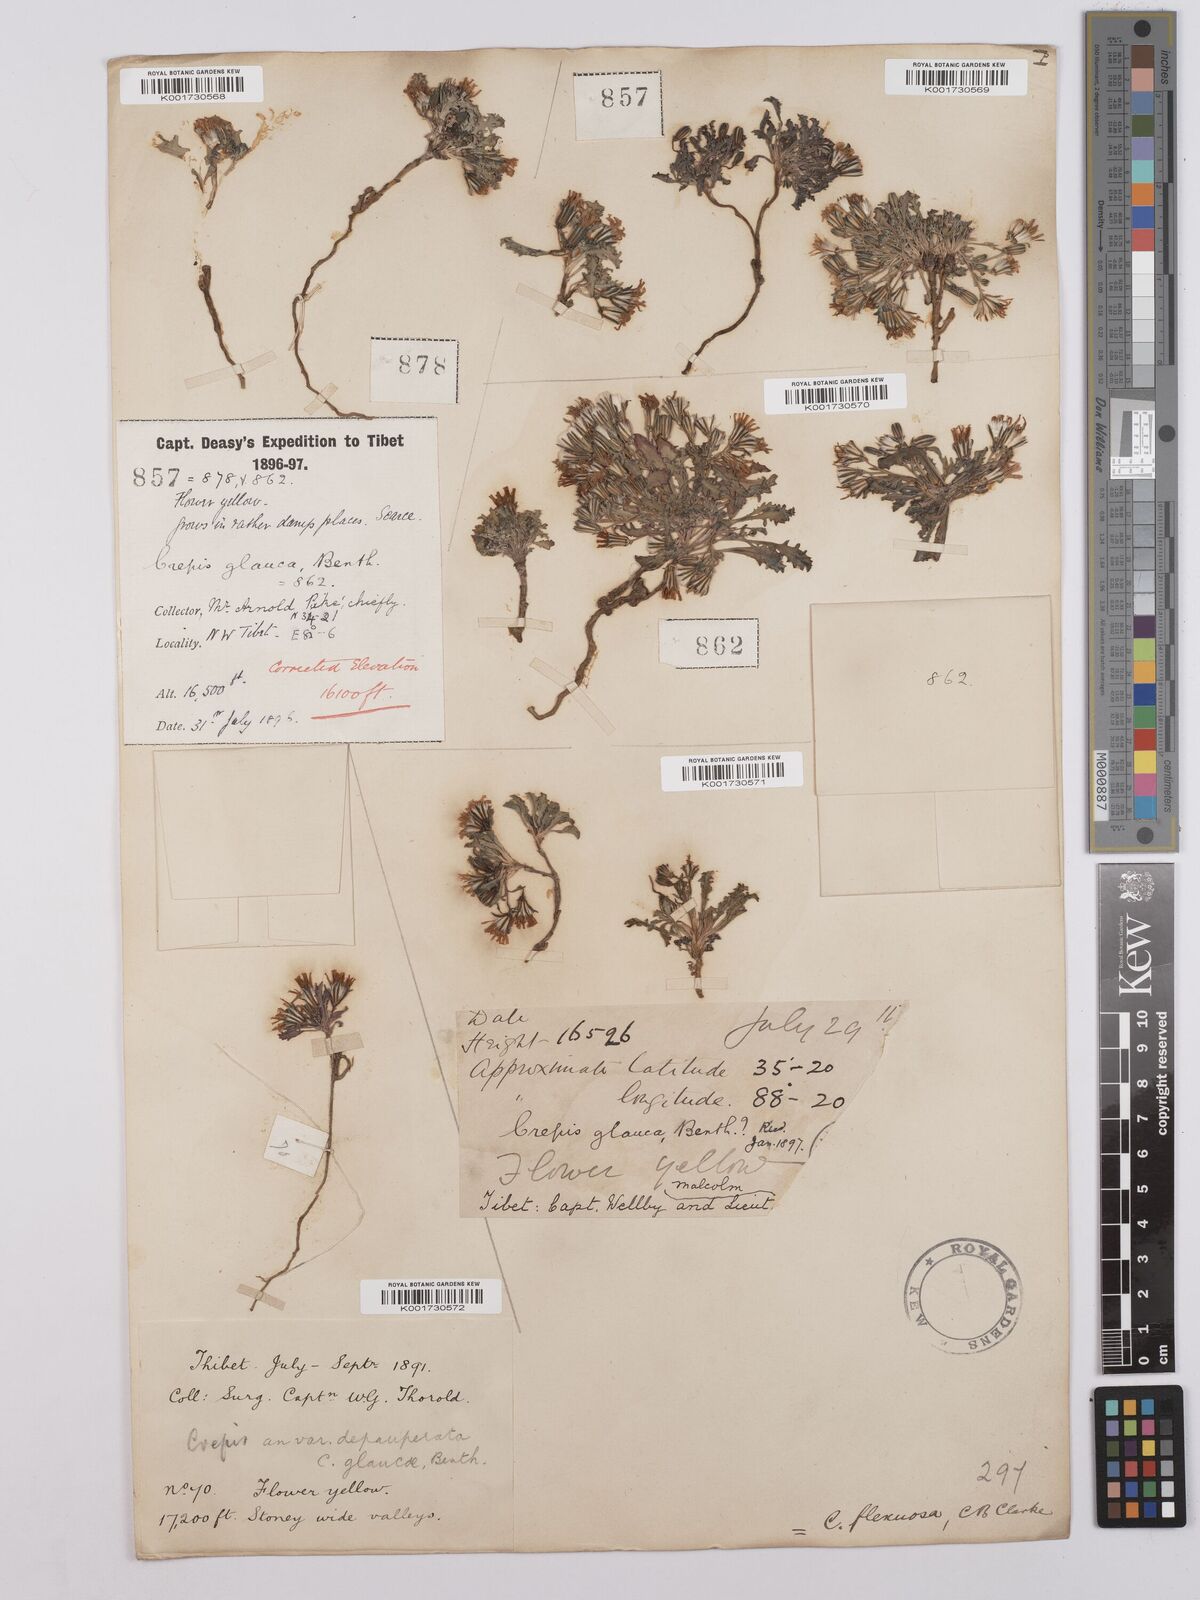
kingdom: Plantae
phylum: Tracheophyta
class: Magnoliopsida
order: Asterales
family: Asteraceae
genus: Askellia
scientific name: Askellia flexuosa
